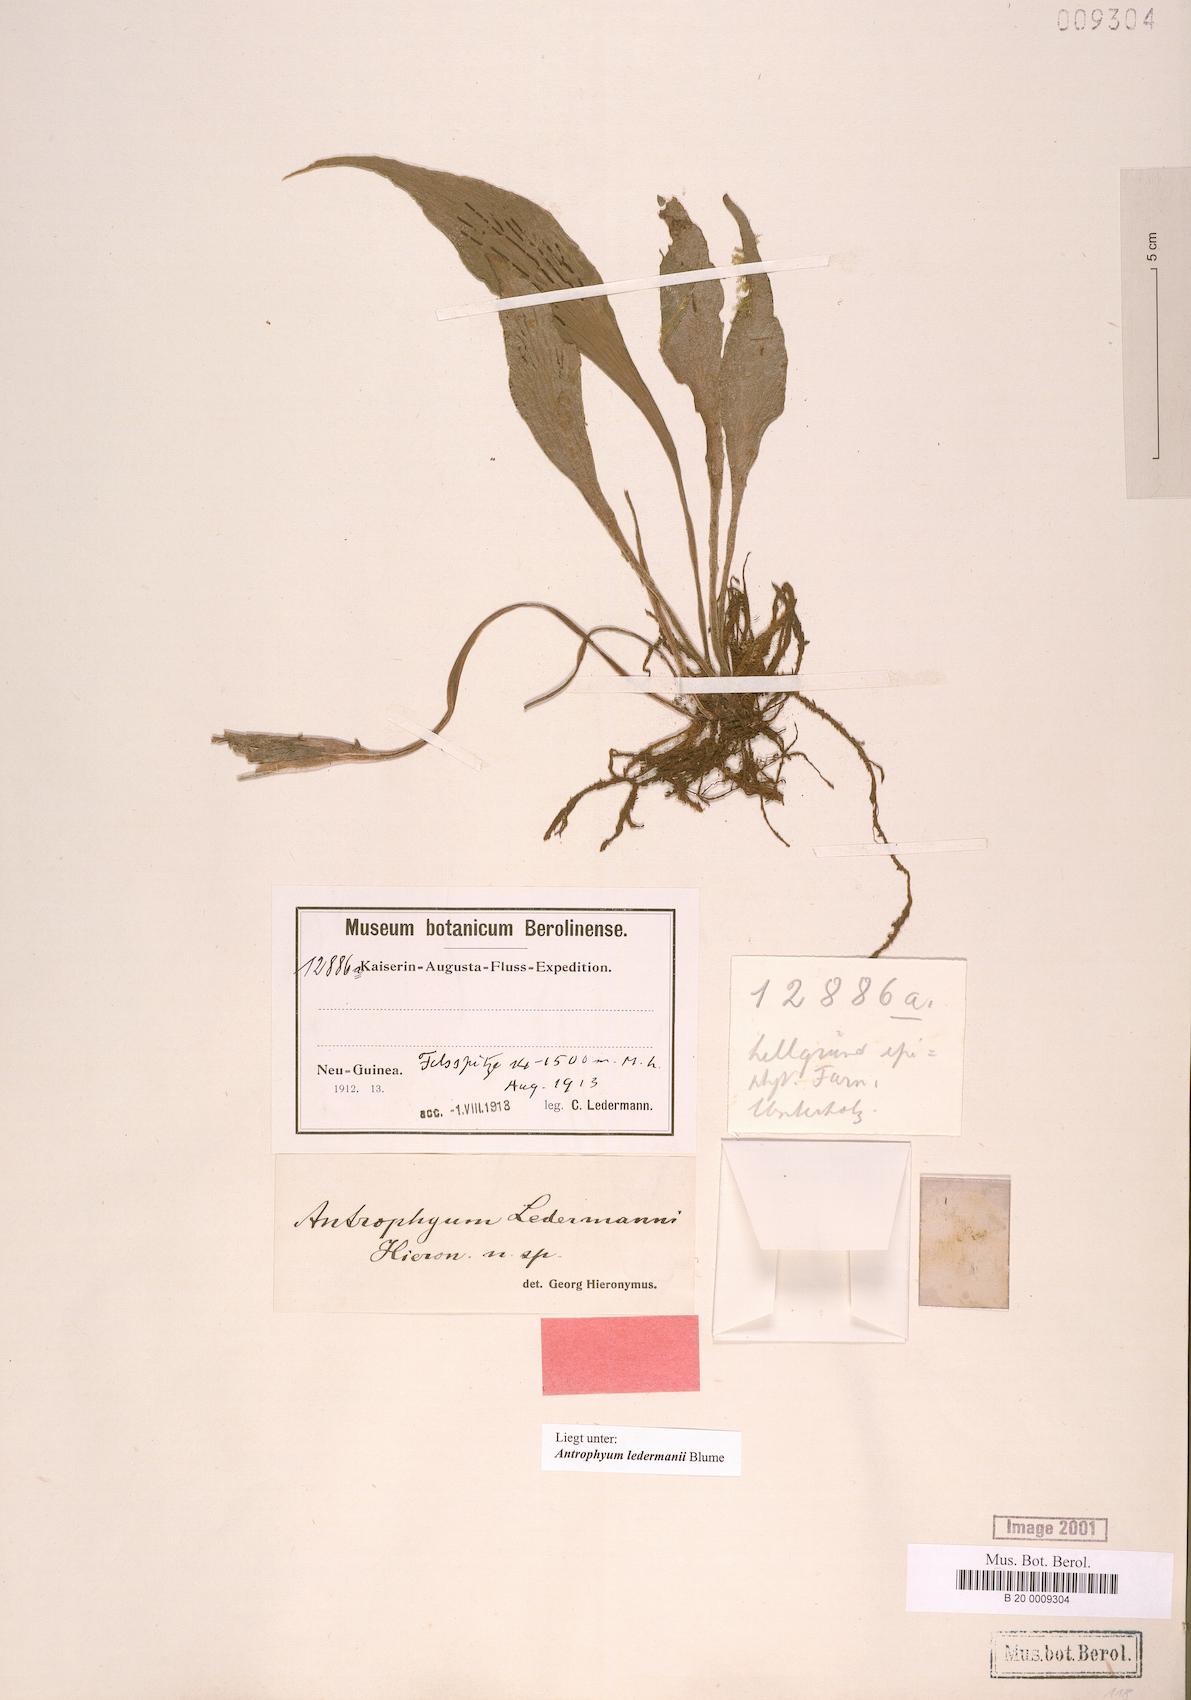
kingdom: Plantae
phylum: Tracheophyta
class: Polypodiopsida
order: Polypodiales
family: Pteridaceae
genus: Antrophyum
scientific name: Antrophyum ledermannii
